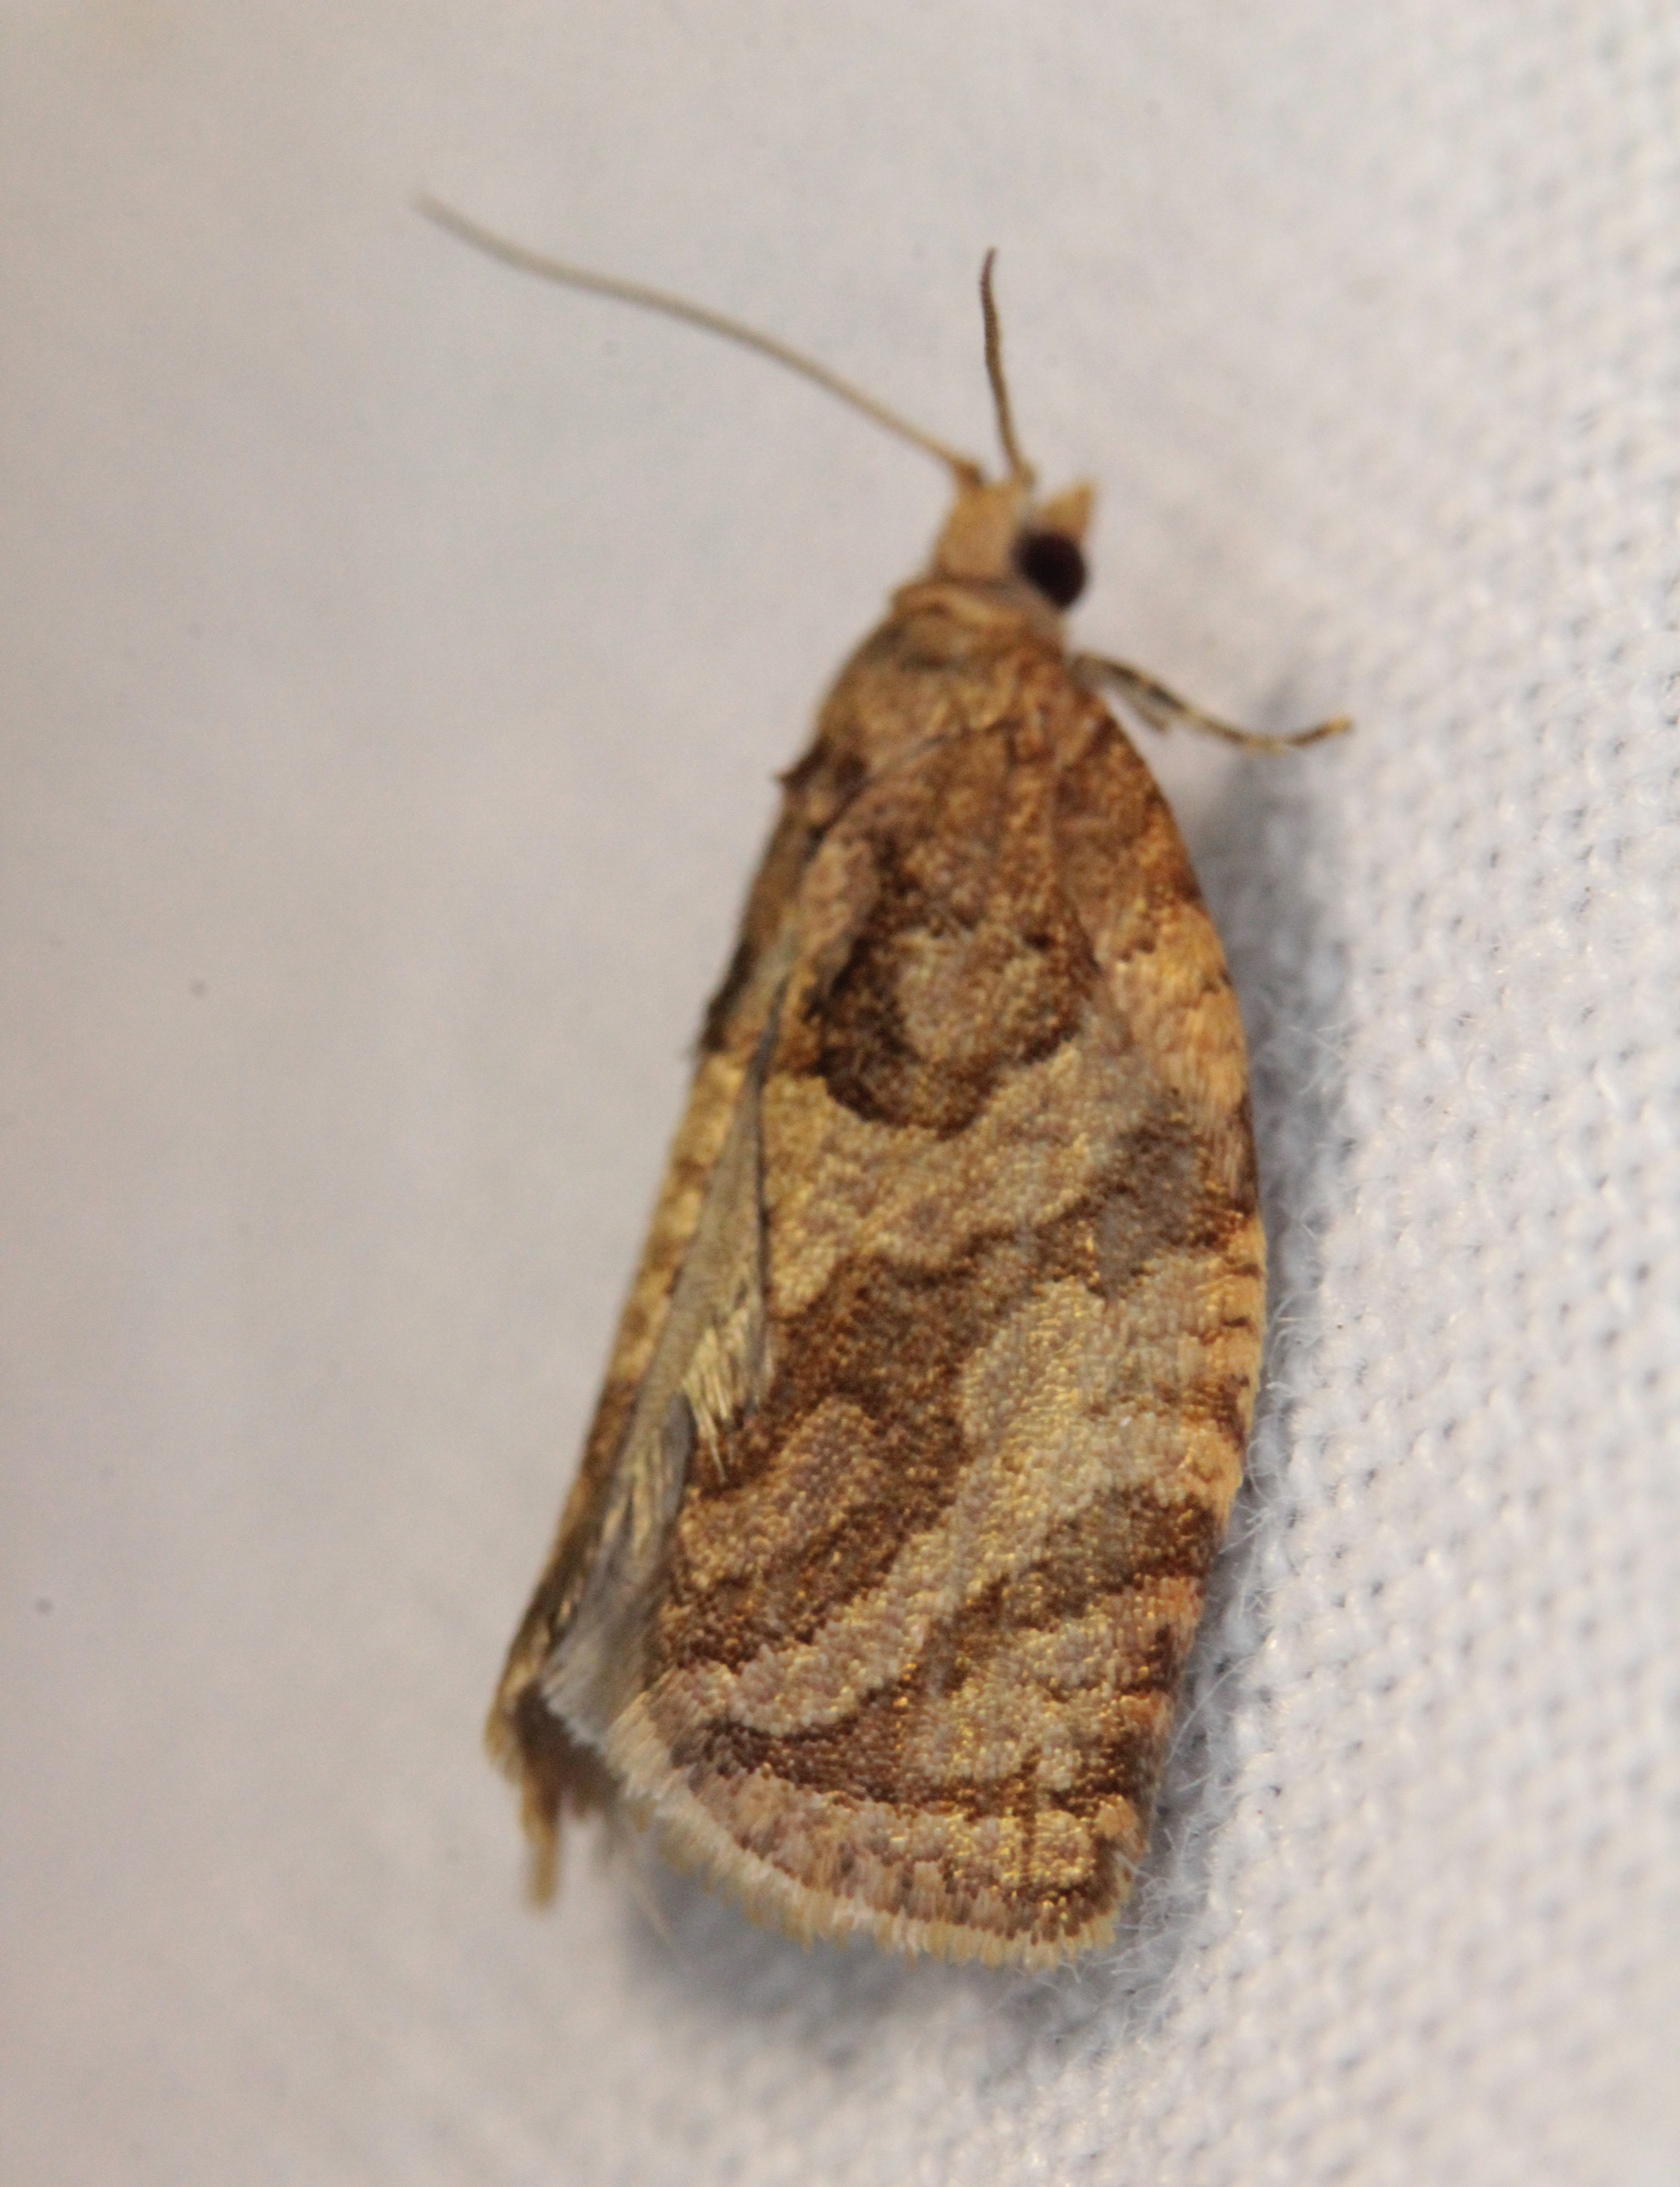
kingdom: Animalia
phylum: Arthropoda
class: Insecta
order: Lepidoptera
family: Tortricidae
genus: Adoxophyes
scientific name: Adoxophyes orana
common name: Summer fruit tortrix
